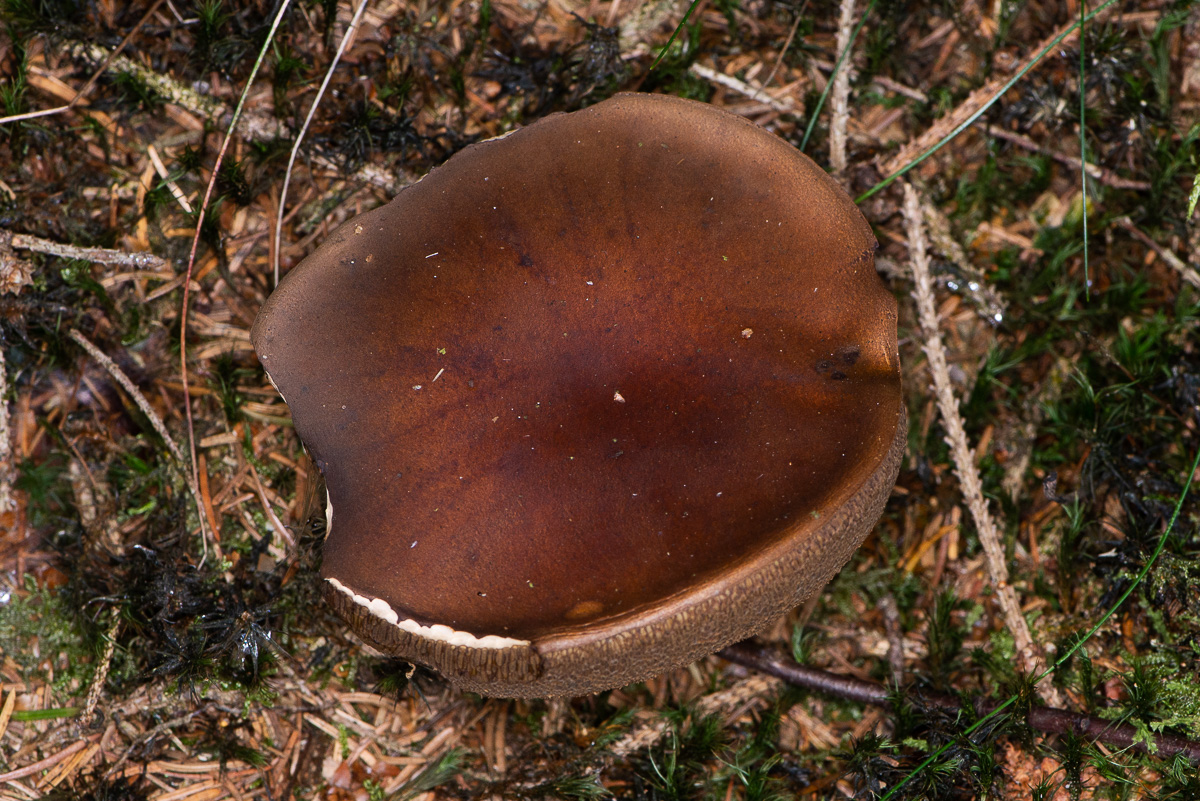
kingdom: Fungi
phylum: Basidiomycota
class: Agaricomycetes
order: Boletales
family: Boletaceae
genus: Imleria
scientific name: Imleria badia
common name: brunstokket rørhat
